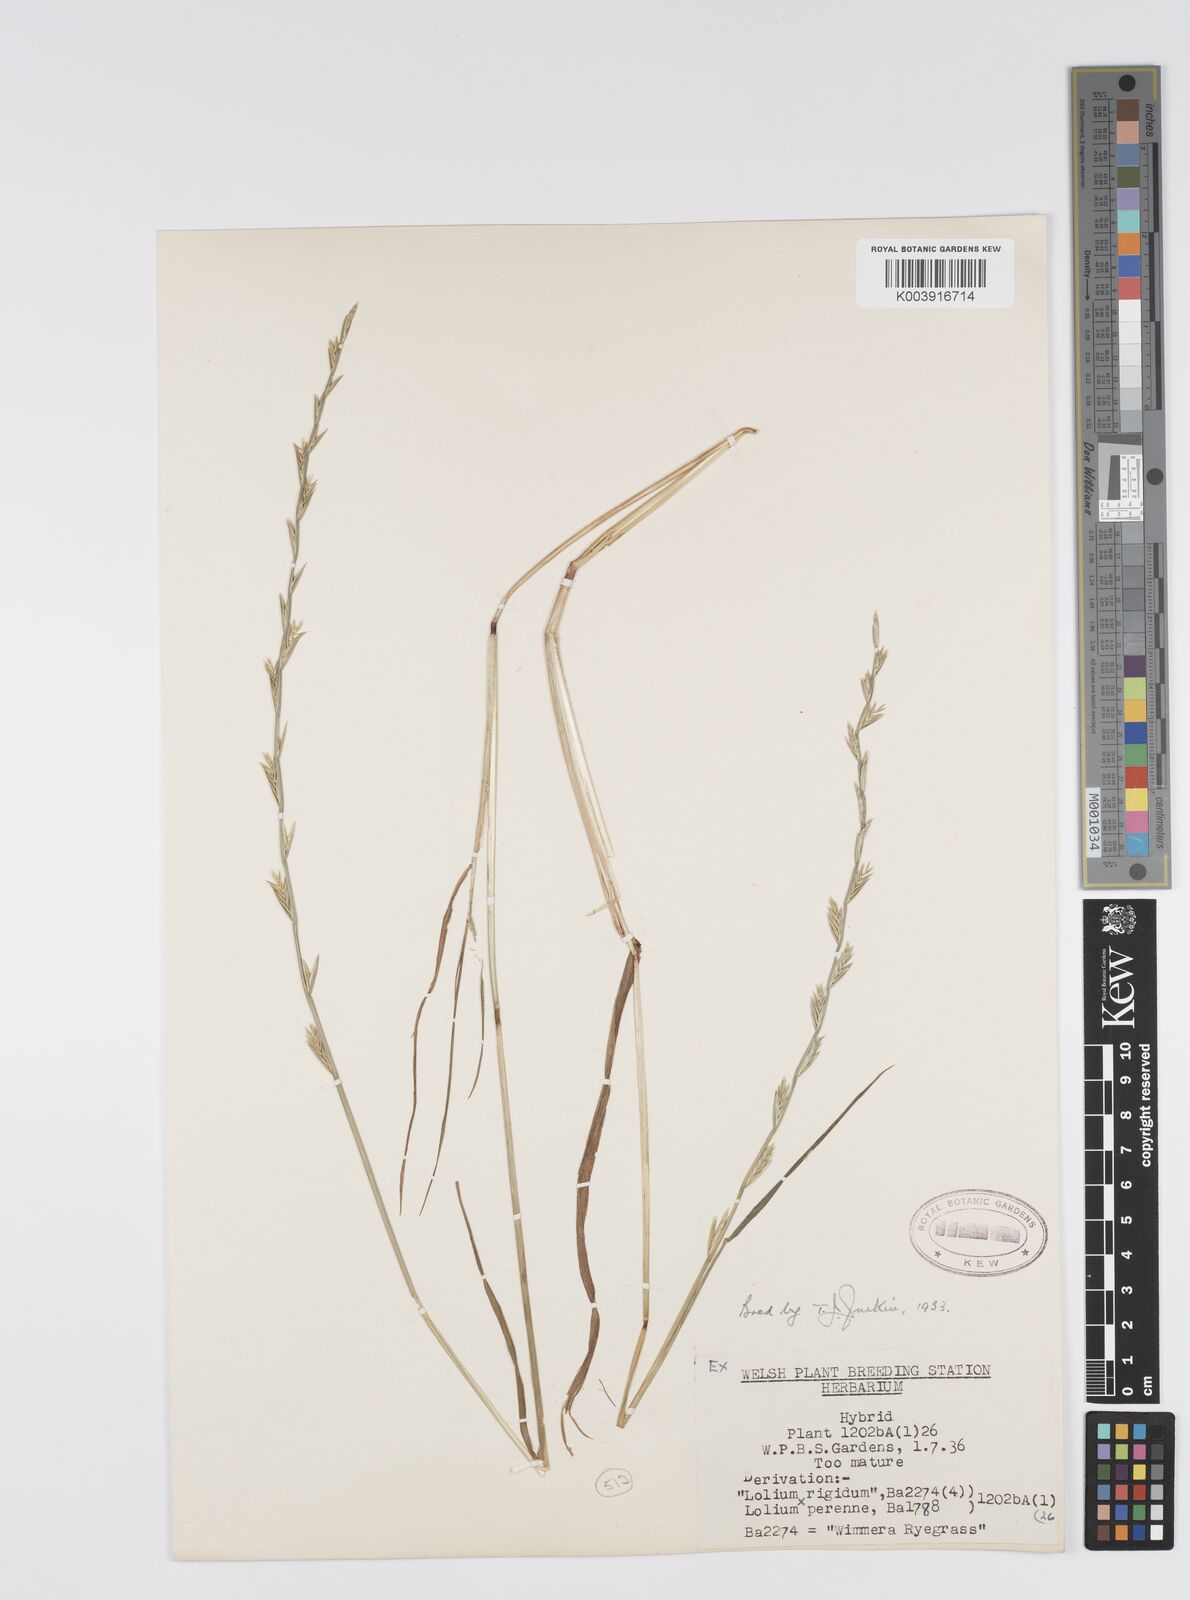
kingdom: Plantae
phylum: Tracheophyta
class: Liliopsida
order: Poales
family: Poaceae
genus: Lolium
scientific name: Lolium perenne
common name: Perennial ryegrass
